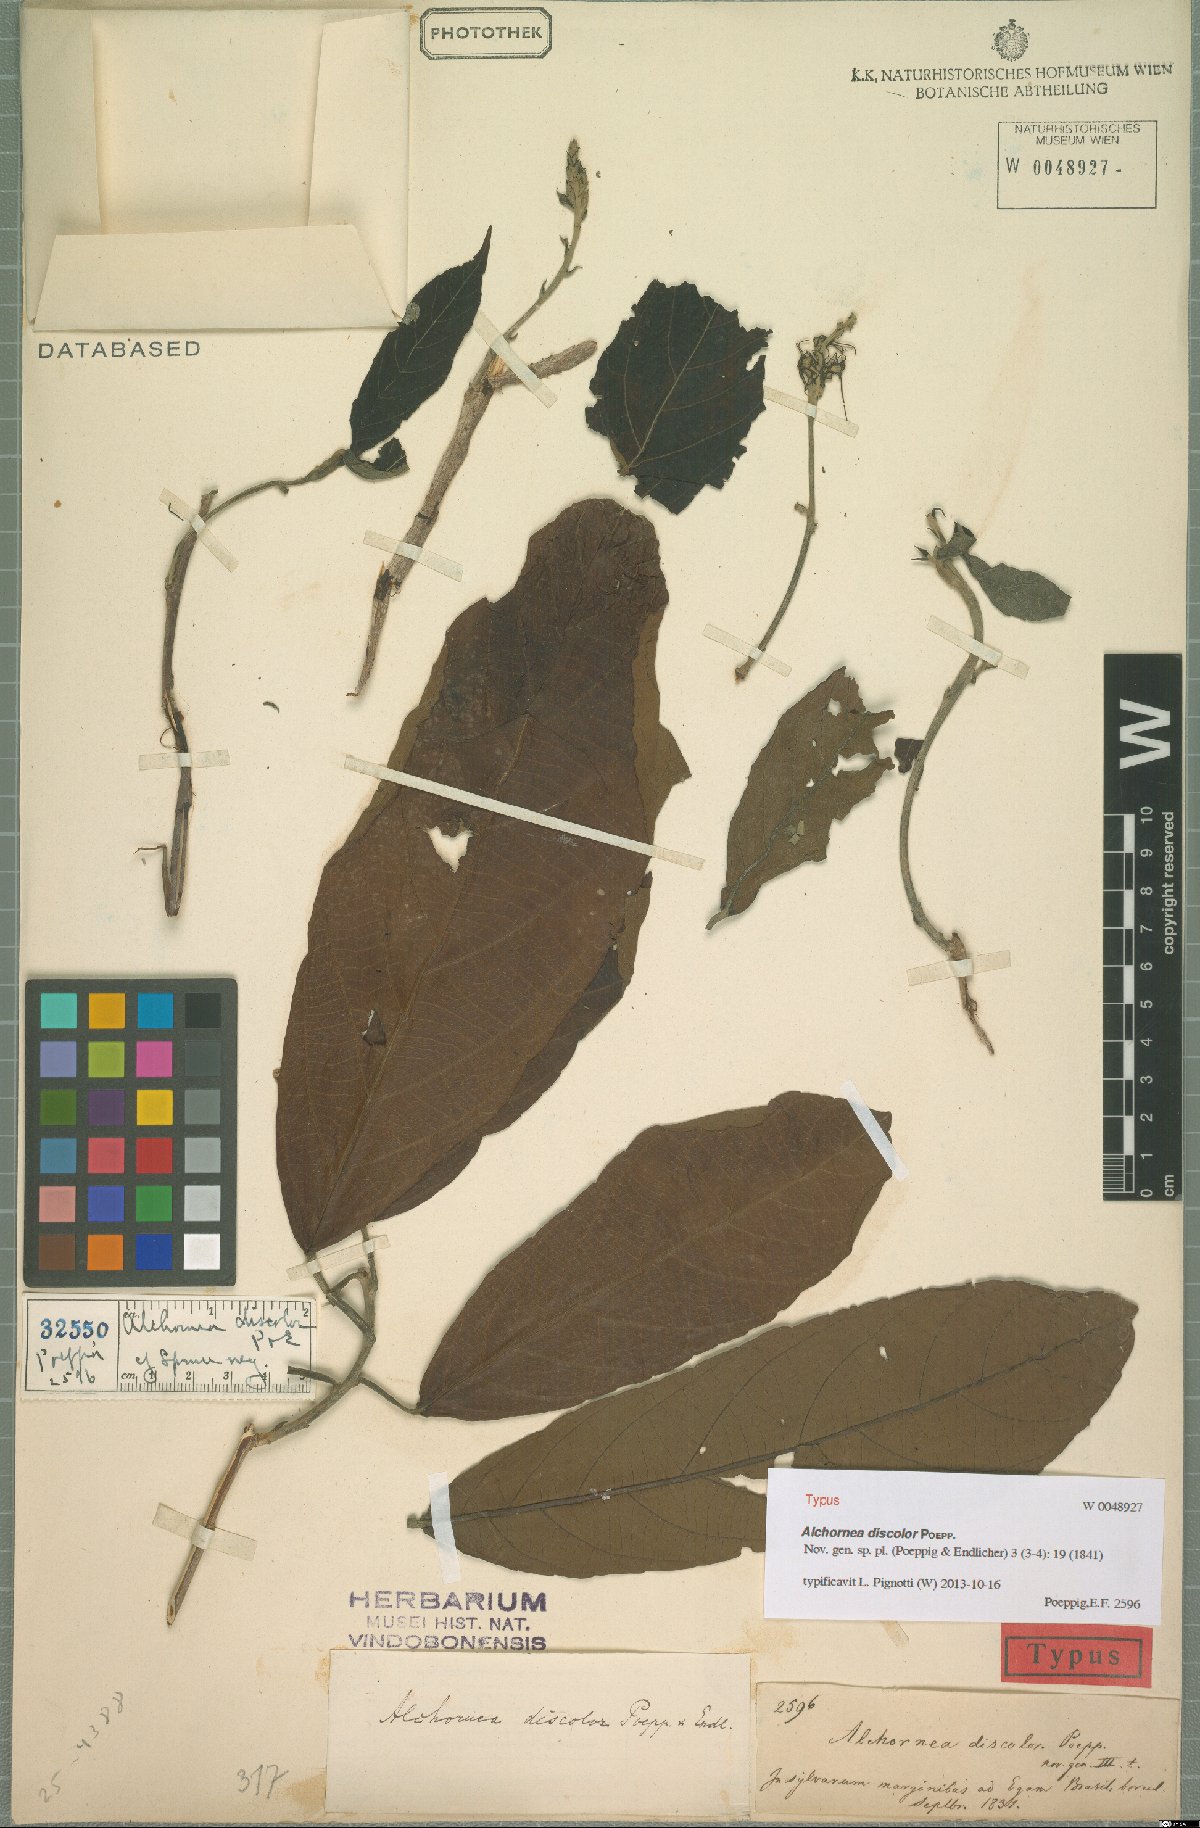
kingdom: Plantae
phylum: Tracheophyta
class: Magnoliopsida
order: Malpighiales
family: Euphorbiaceae
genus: Alchornea
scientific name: Alchornea discolor
